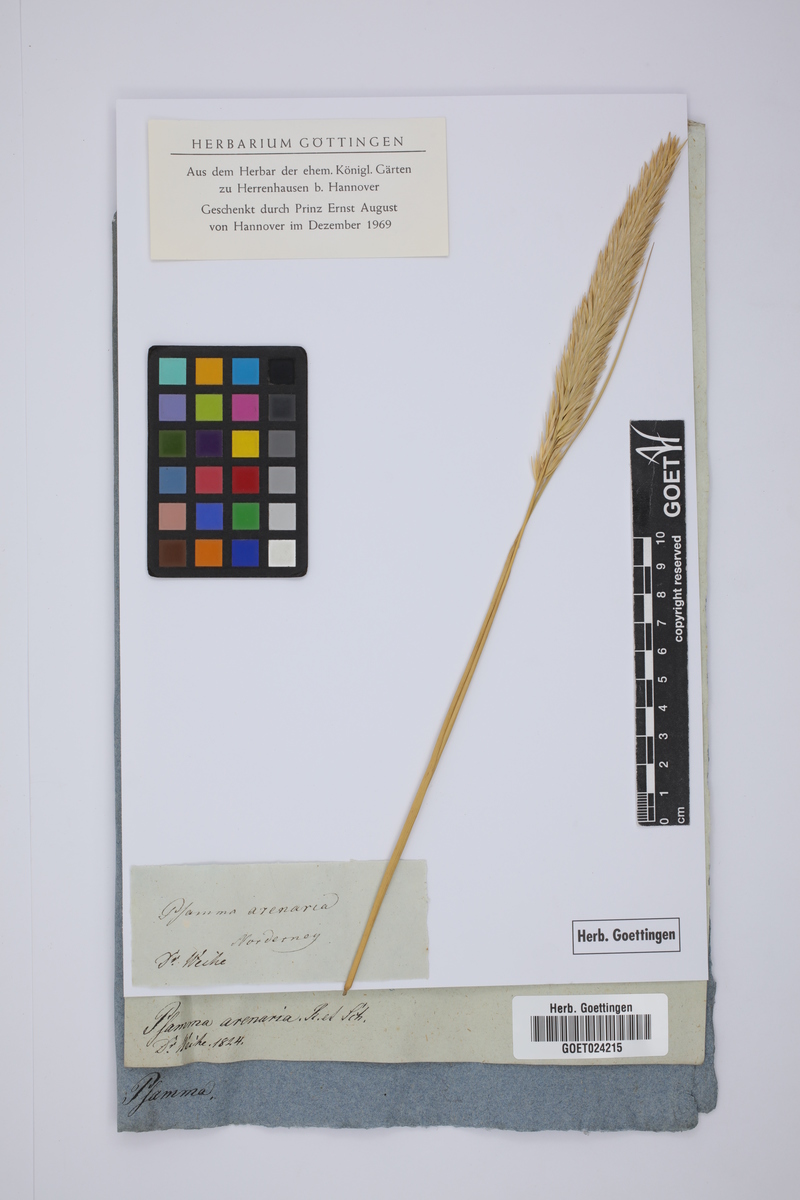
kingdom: Plantae
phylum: Tracheophyta
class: Liliopsida
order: Poales
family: Poaceae
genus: Calamagrostis
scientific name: Calamagrostis arenaria
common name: European beachgrass
